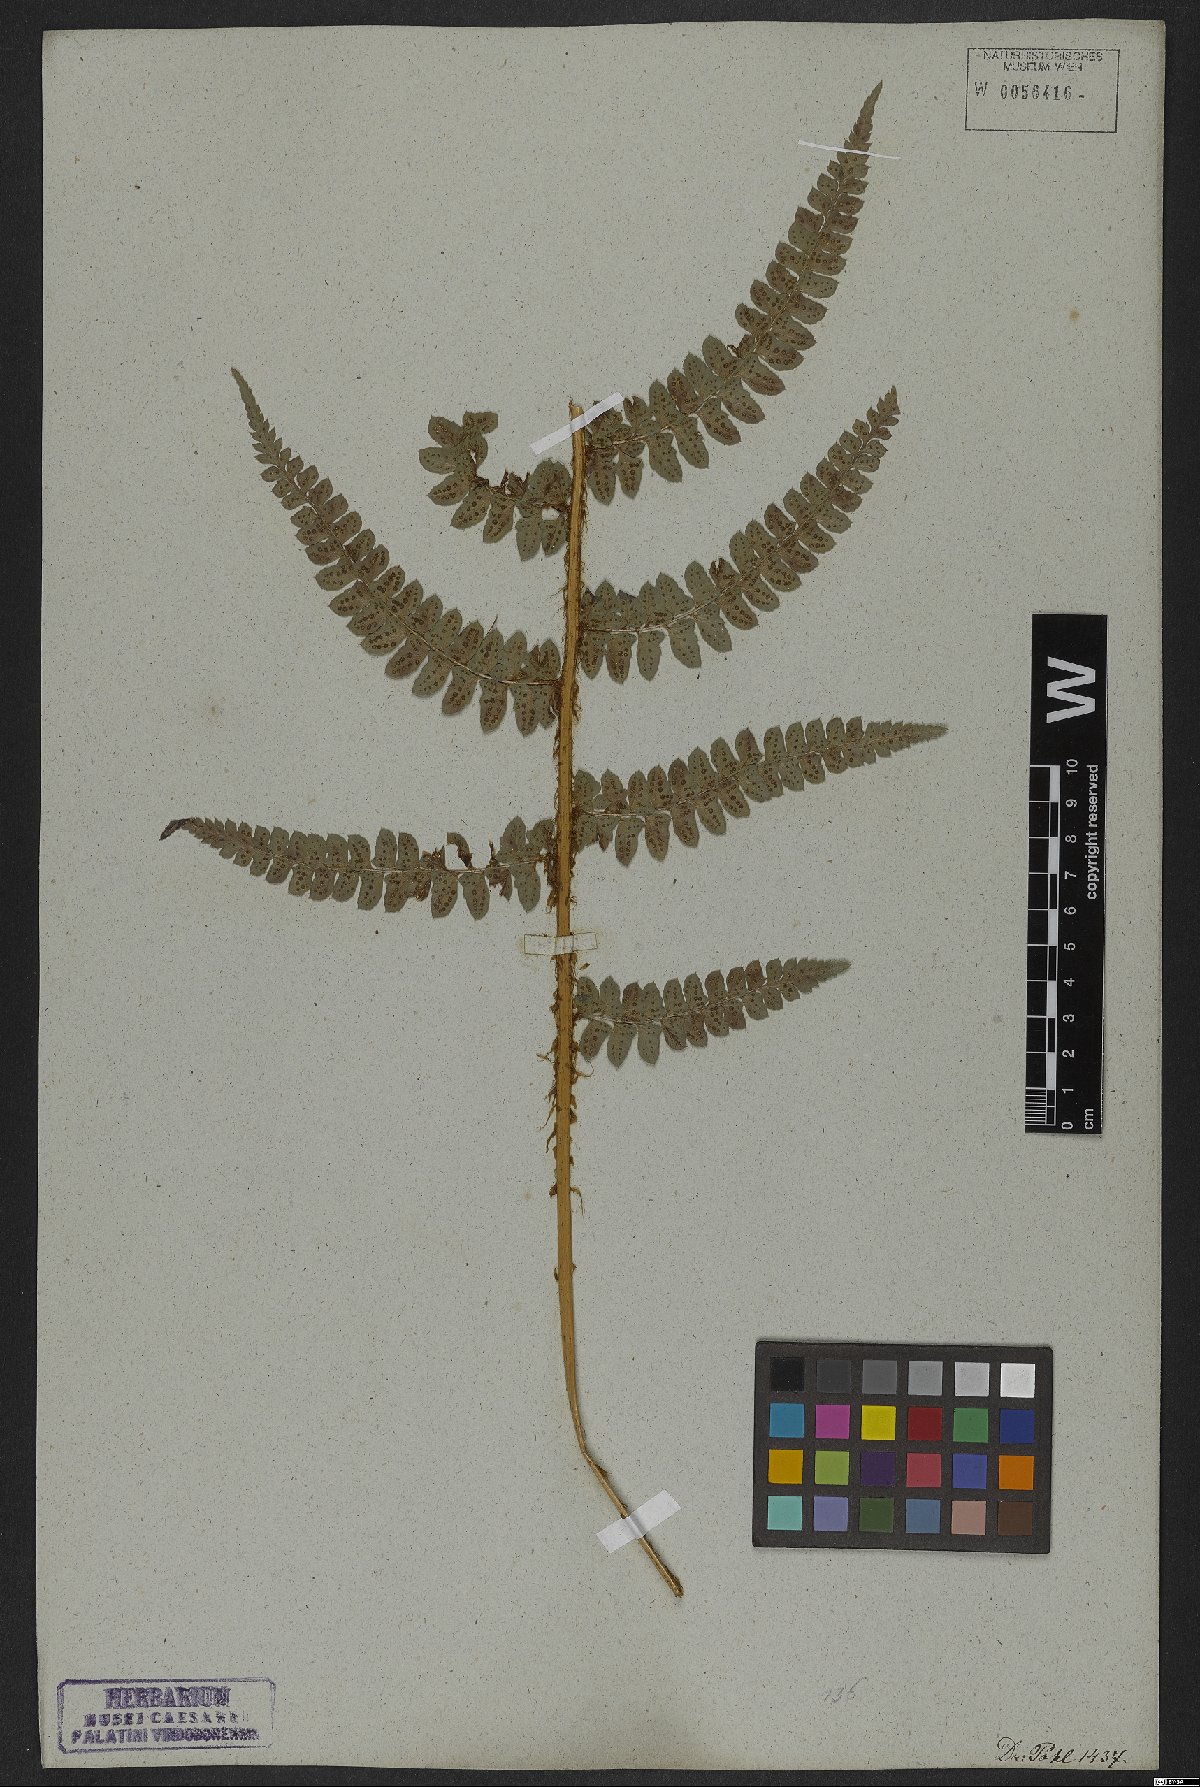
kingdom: Plantae
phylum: Tracheophyta
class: Polypodiopsida
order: Polypodiales
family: Dryopteridaceae
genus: Polystichum
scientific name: Polystichum aculeatum
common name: Hard shield-fern
